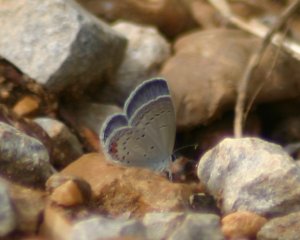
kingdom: Animalia
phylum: Arthropoda
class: Insecta
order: Lepidoptera
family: Lycaenidae
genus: Elkalyce
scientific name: Elkalyce comyntas
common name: Eastern Tailed-Blue
